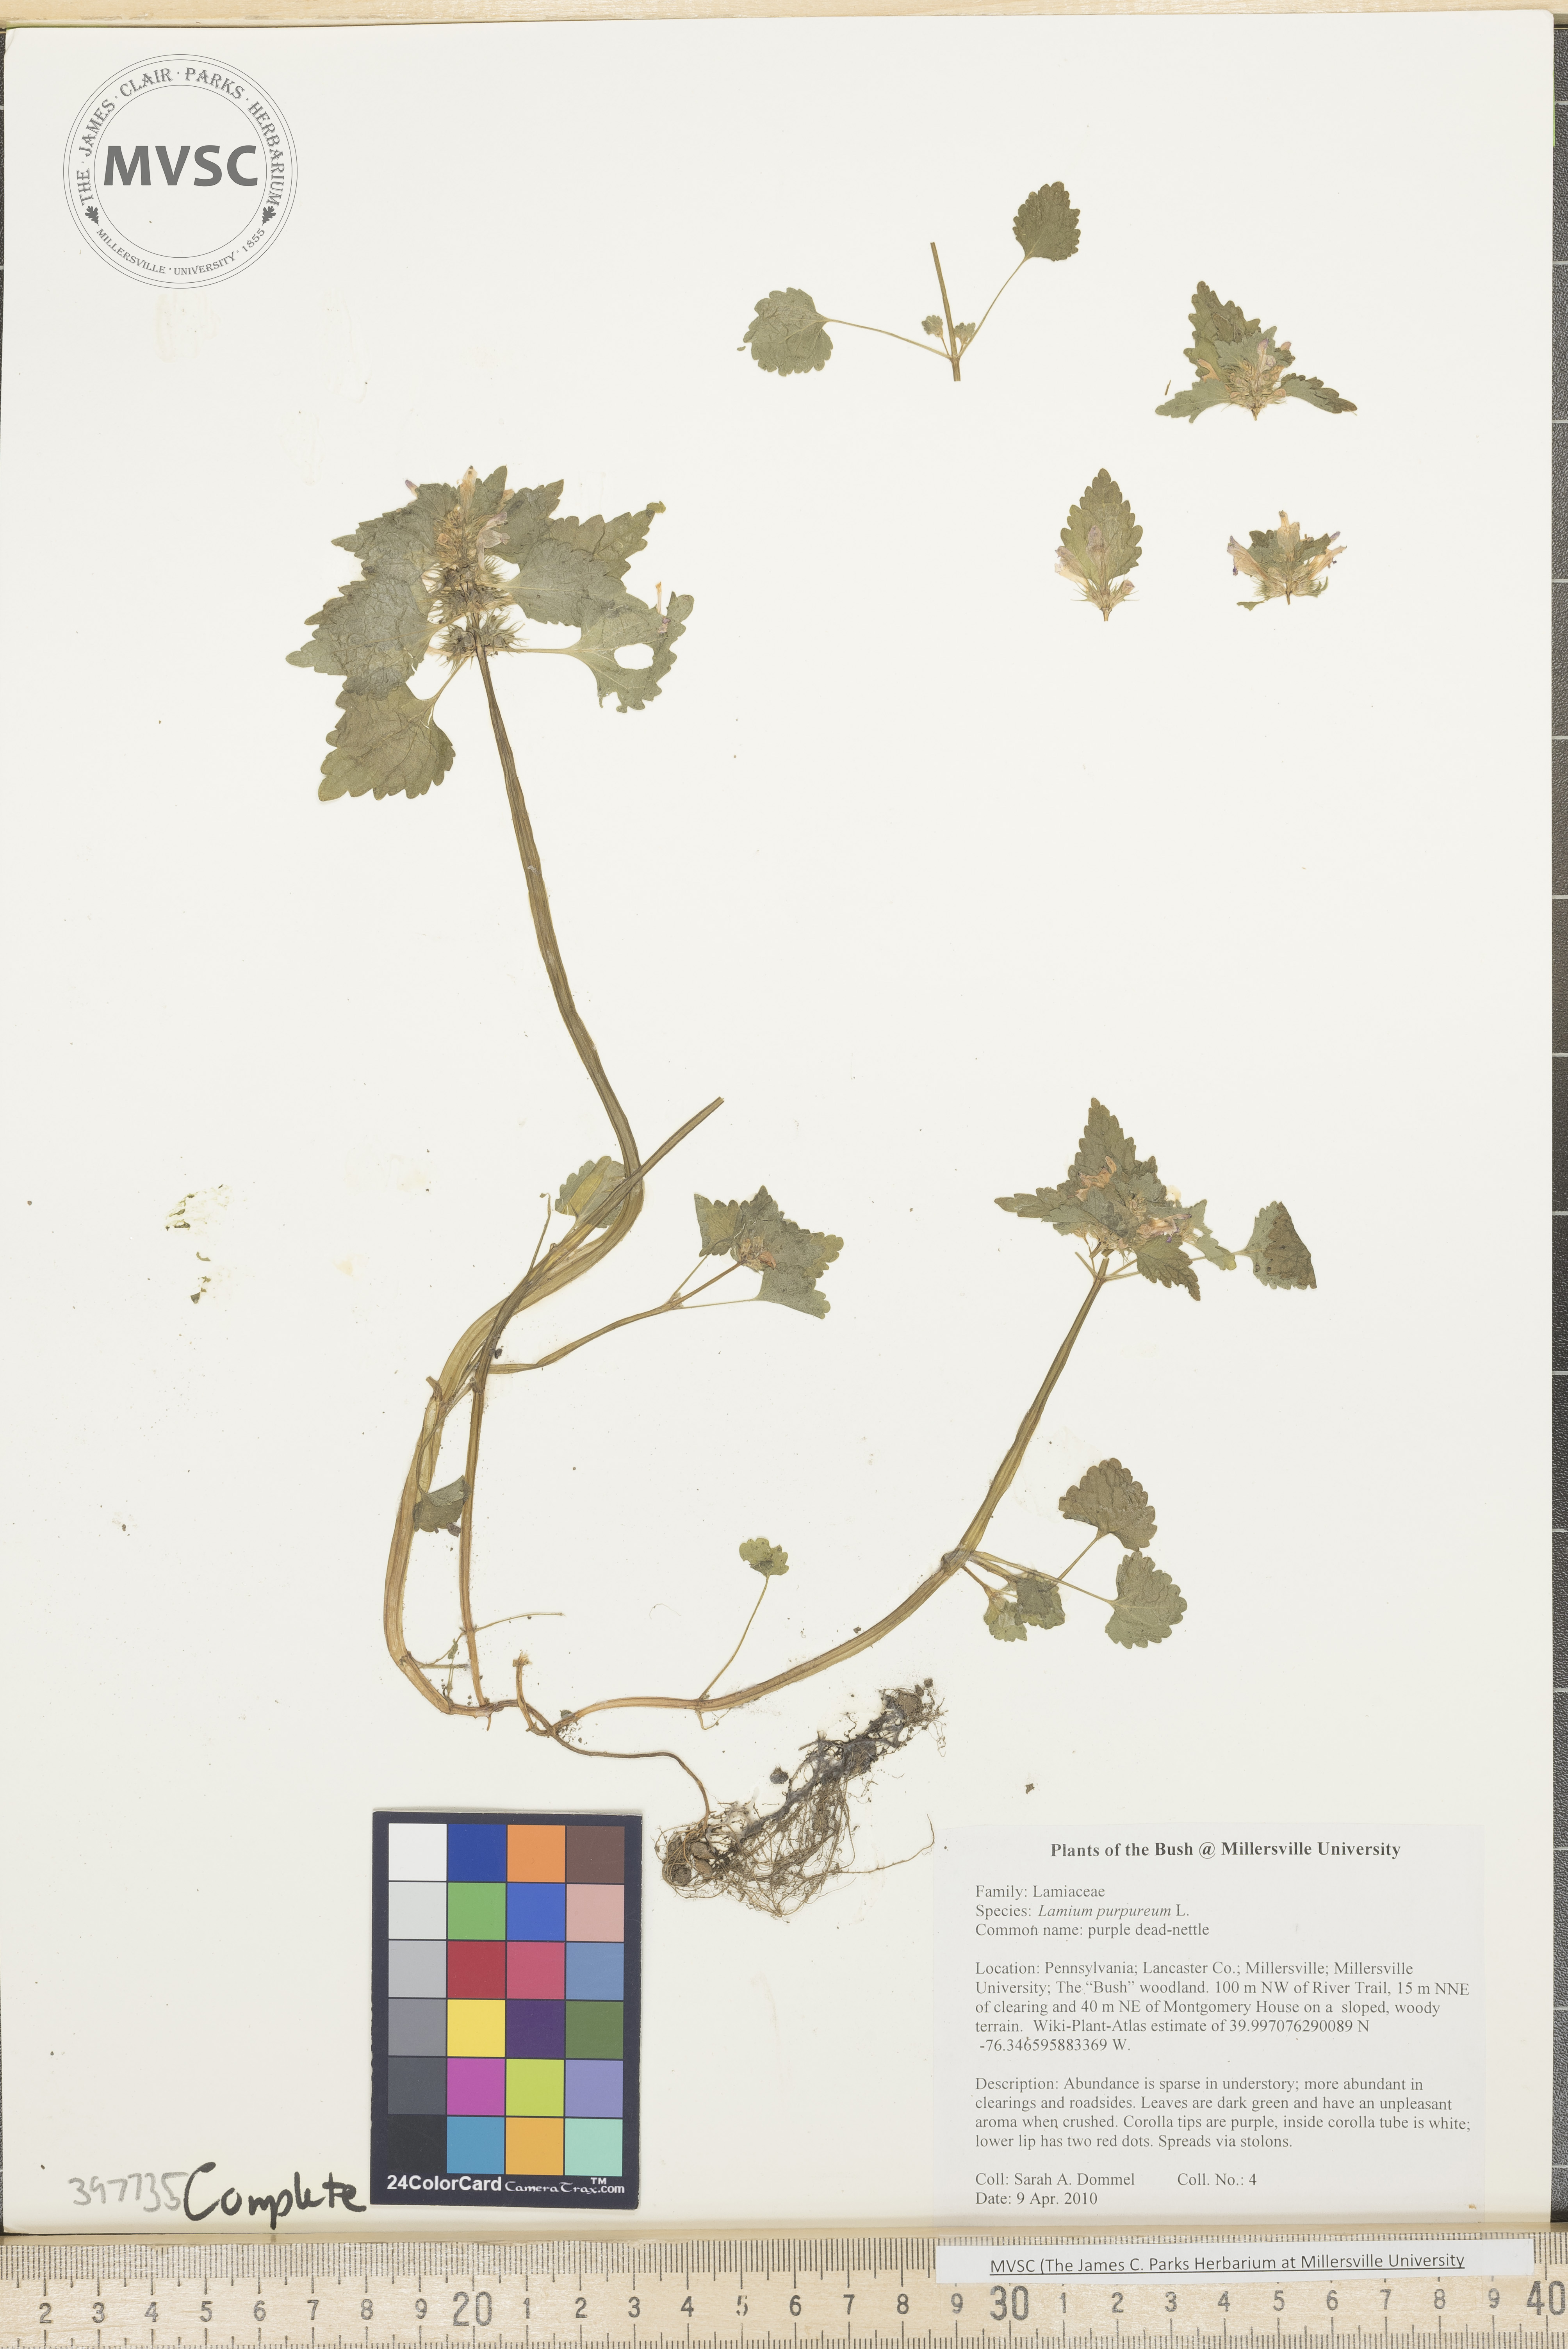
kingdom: Plantae
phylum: Tracheophyta
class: Magnoliopsida
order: Lamiales
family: Lamiaceae
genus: Lamium
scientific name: Lamium purpureum
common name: Purple dead-nettle
